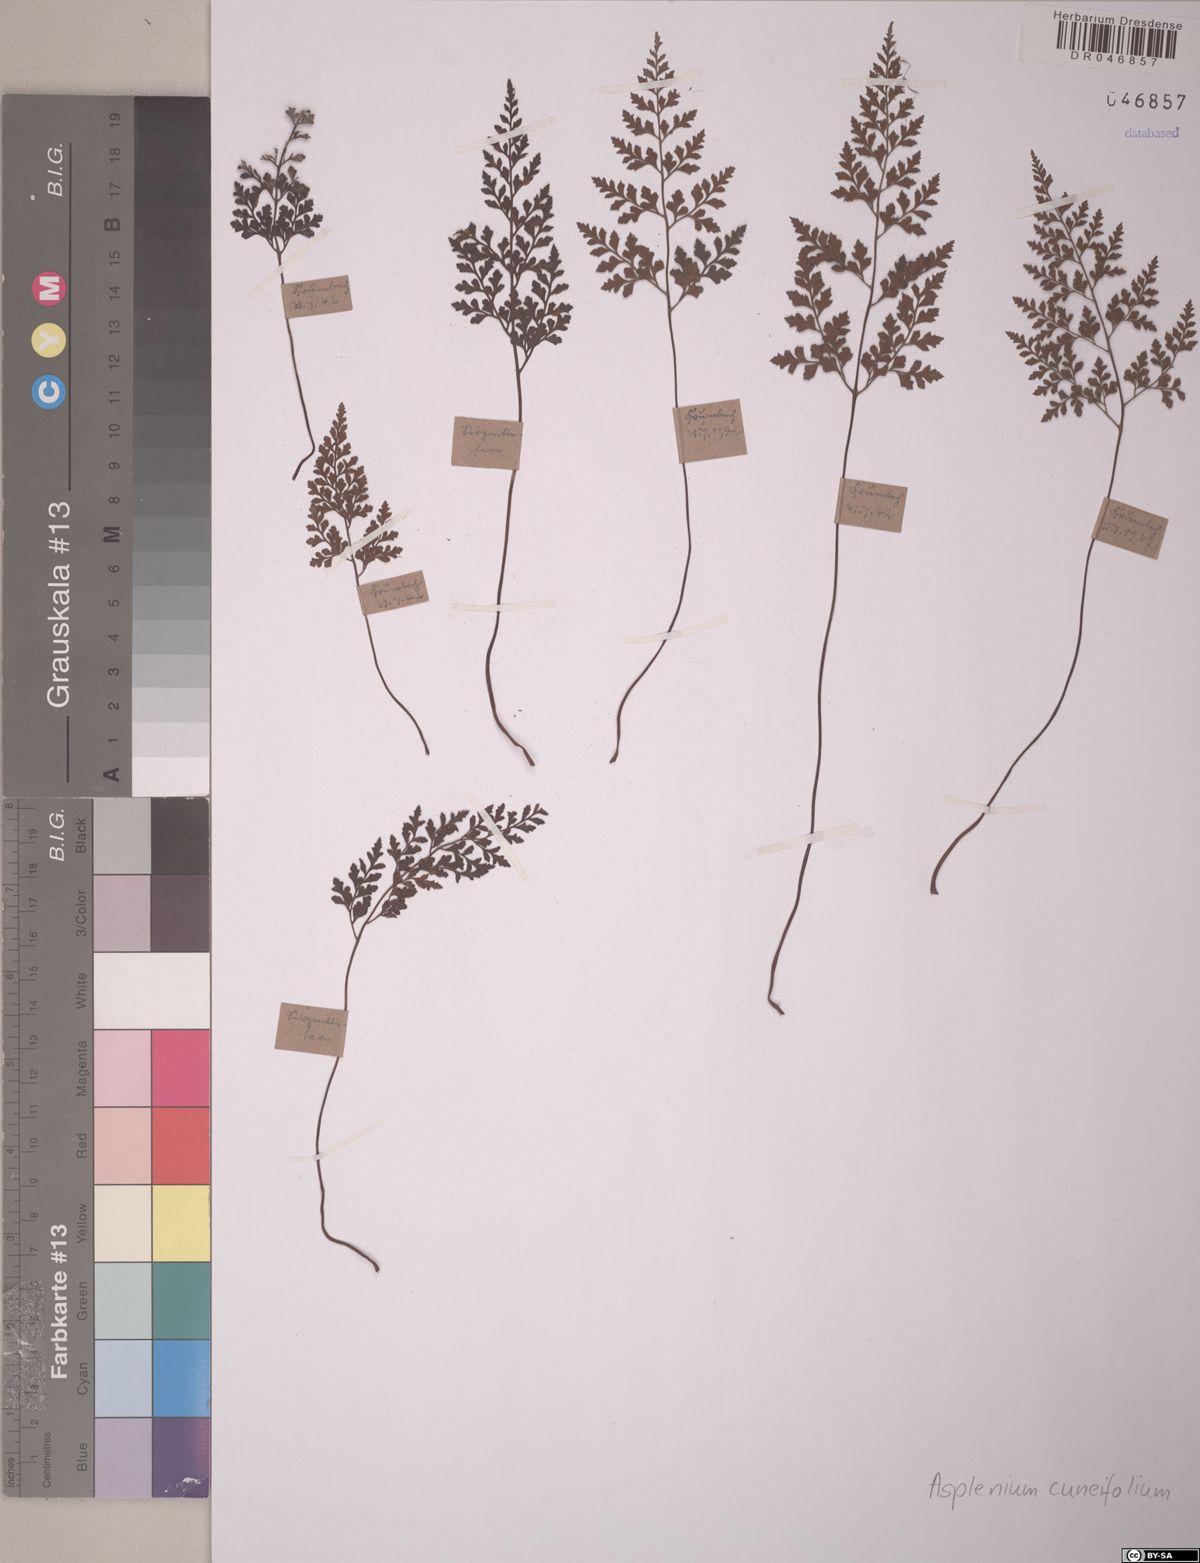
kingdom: Plantae
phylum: Tracheophyta
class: Polypodiopsida
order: Polypodiales
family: Aspleniaceae
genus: Asplenium
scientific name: Asplenium cuneifolium
